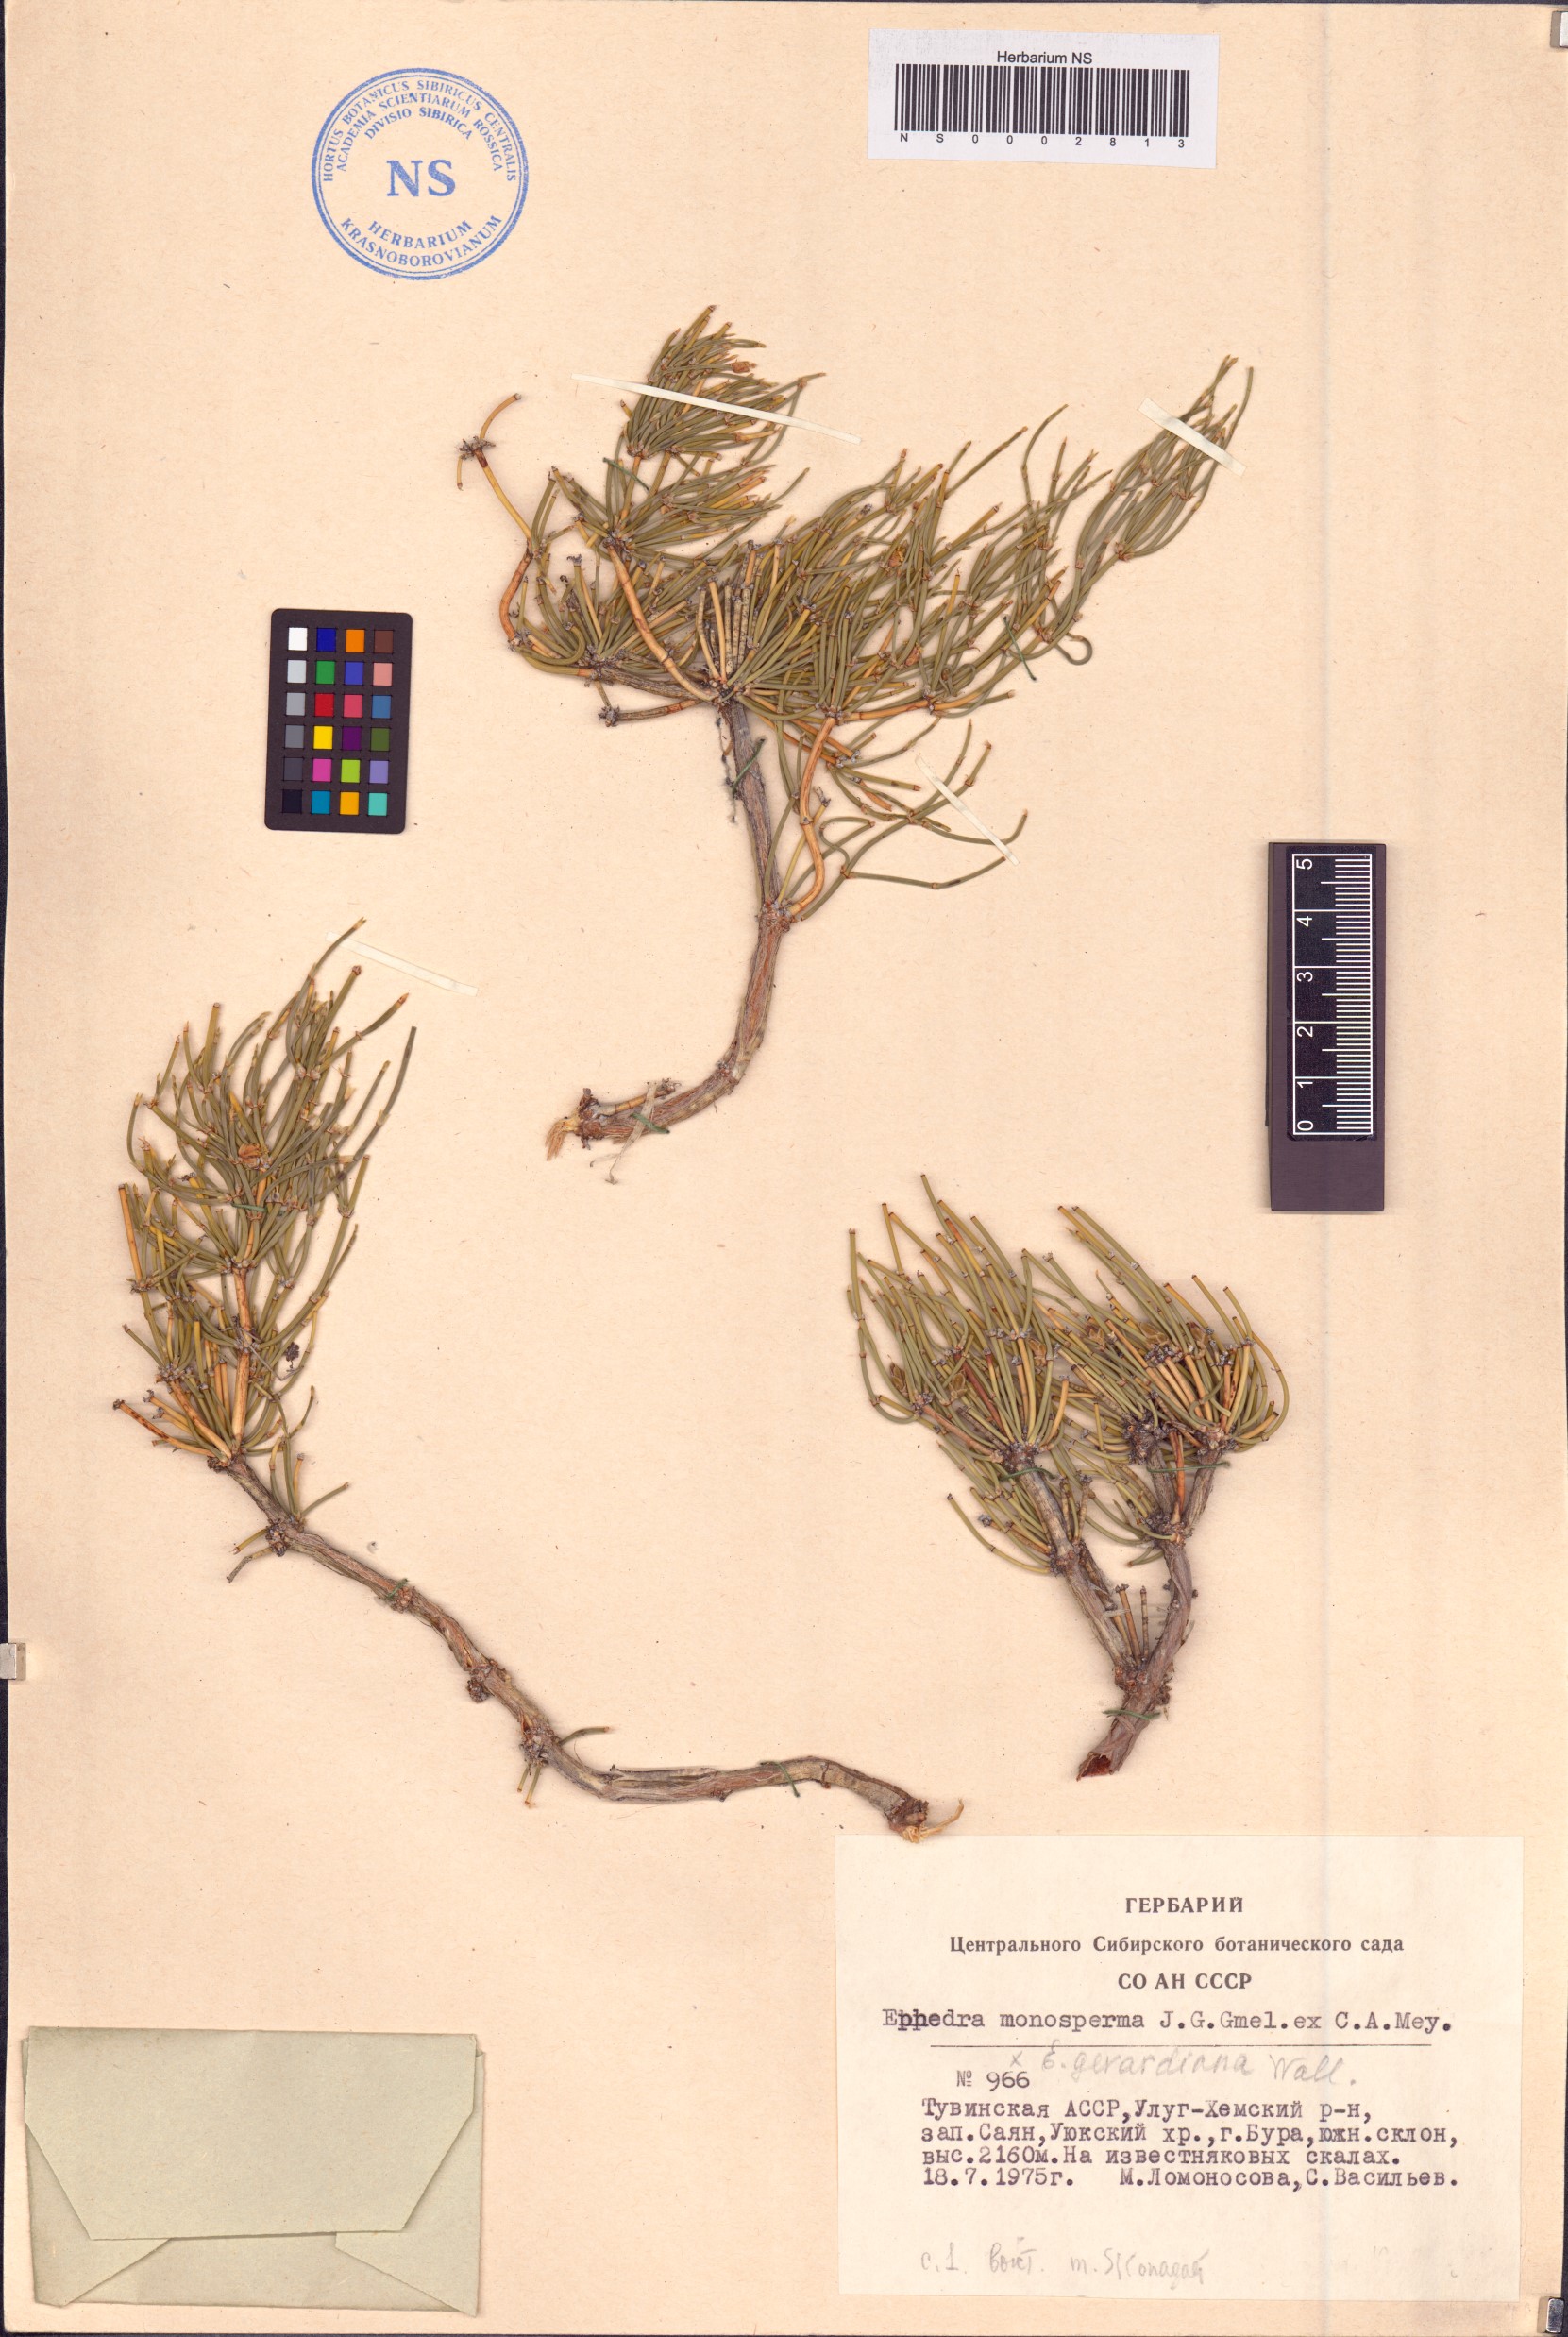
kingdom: Plantae
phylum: Tracheophyta
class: Gnetopsida
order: Ephedrales
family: Ephedraceae
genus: Ephedra
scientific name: Ephedra monosperma
